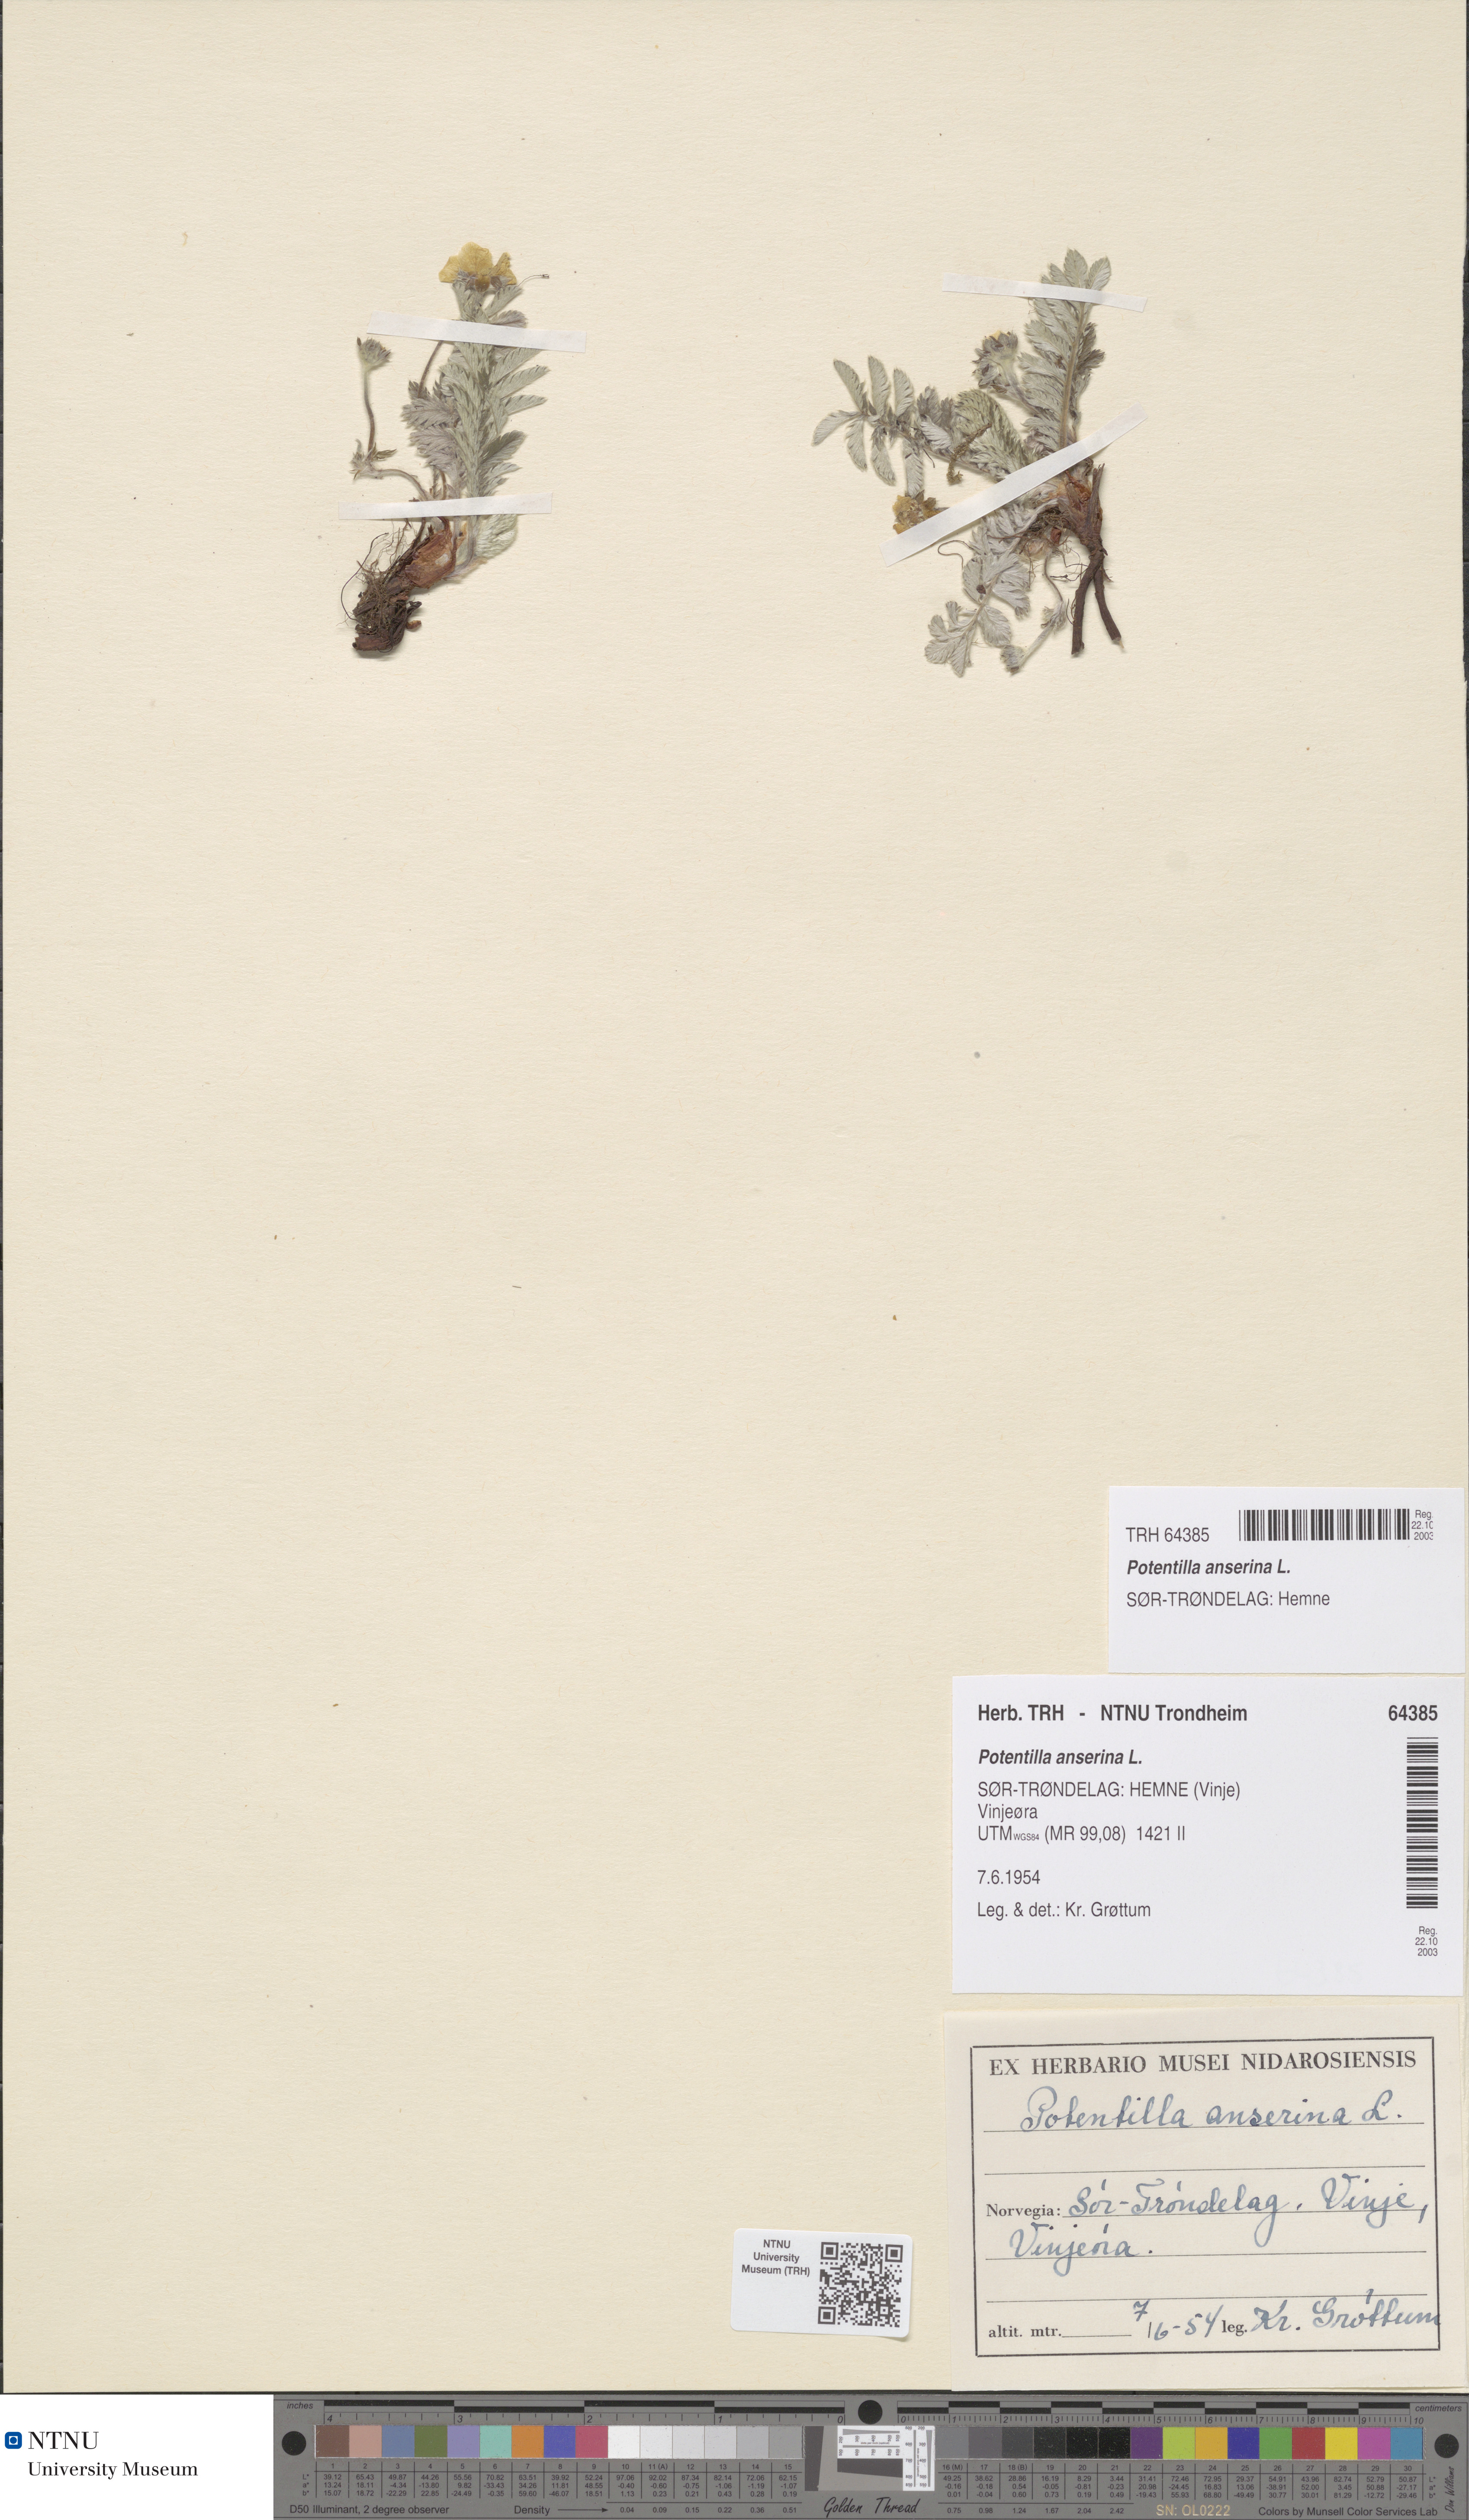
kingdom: Plantae
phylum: Tracheophyta
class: Magnoliopsida
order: Rosales
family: Rosaceae
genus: Argentina
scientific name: Argentina anserina
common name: Common silverweed
